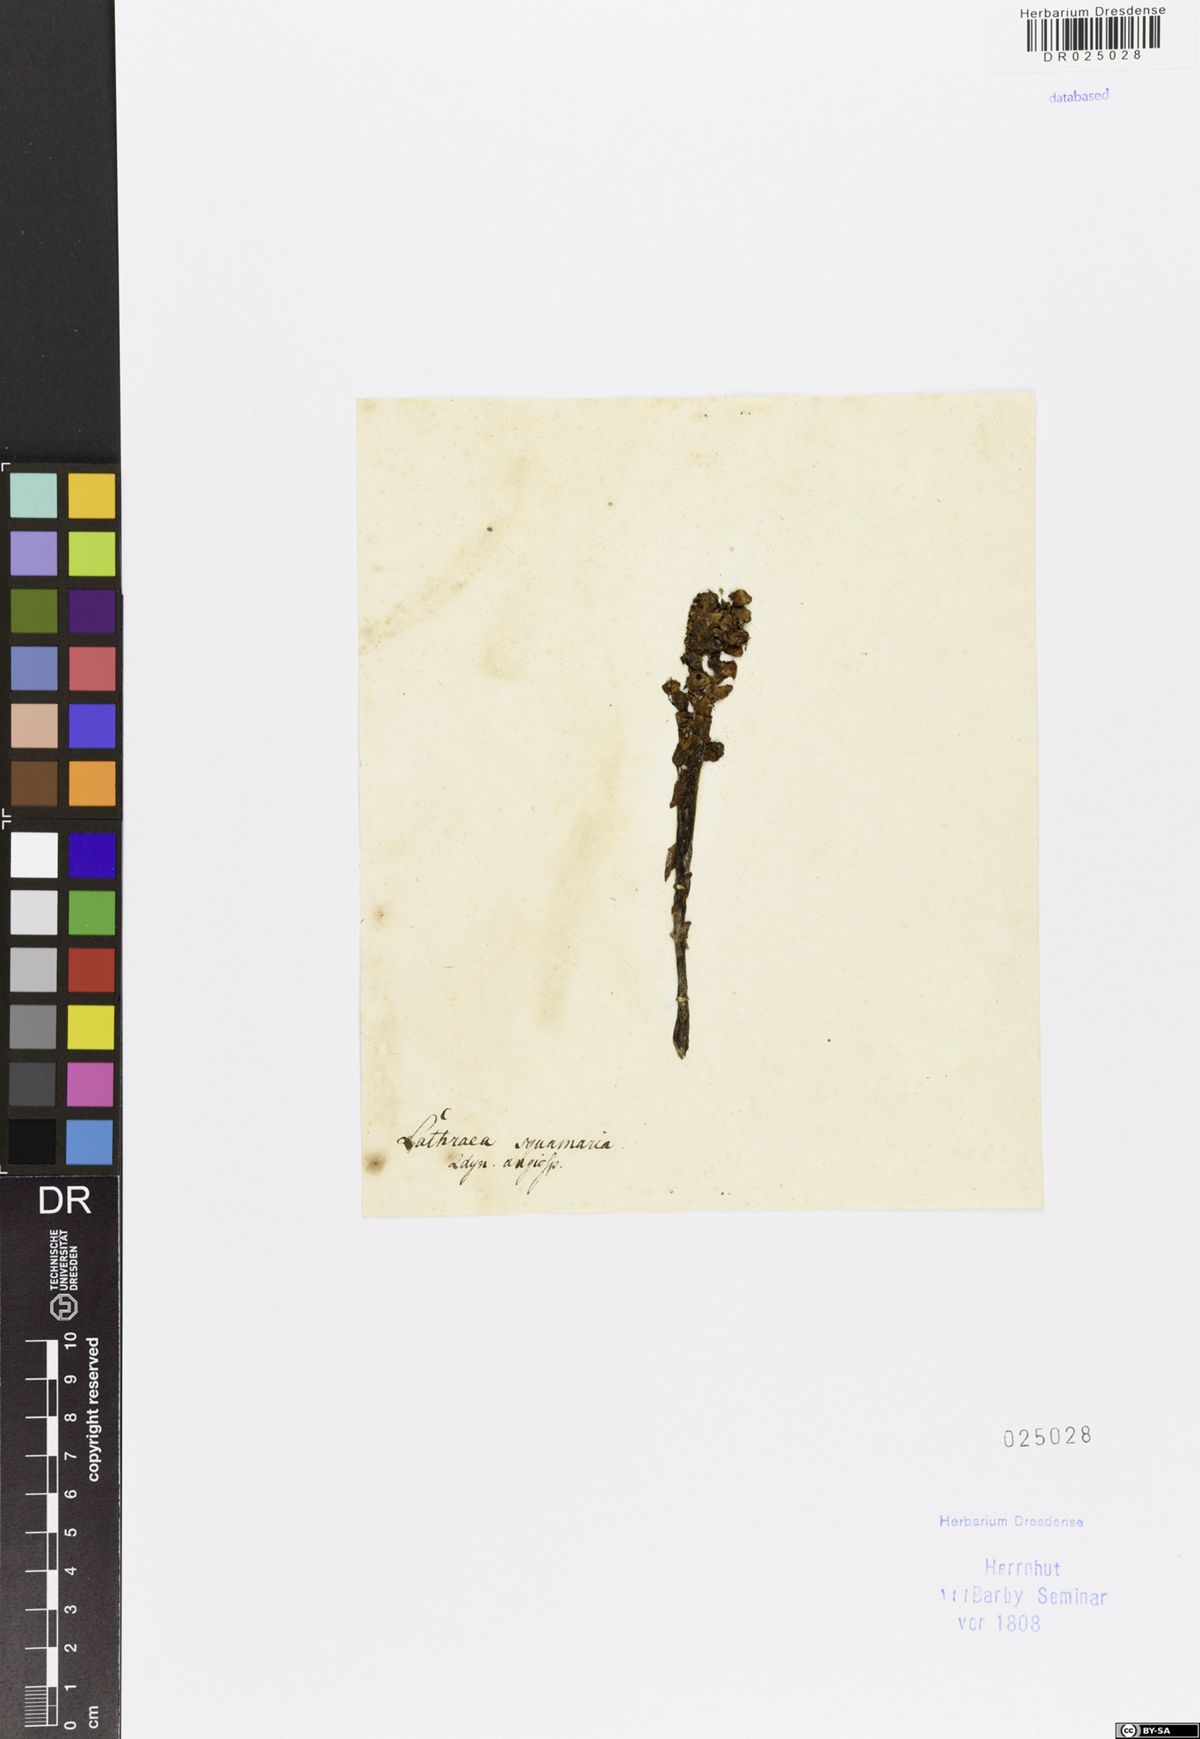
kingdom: Plantae
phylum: Tracheophyta
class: Magnoliopsida
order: Lamiales
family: Orobanchaceae
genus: Lathraea
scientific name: Lathraea squamaria
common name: Toothwort
